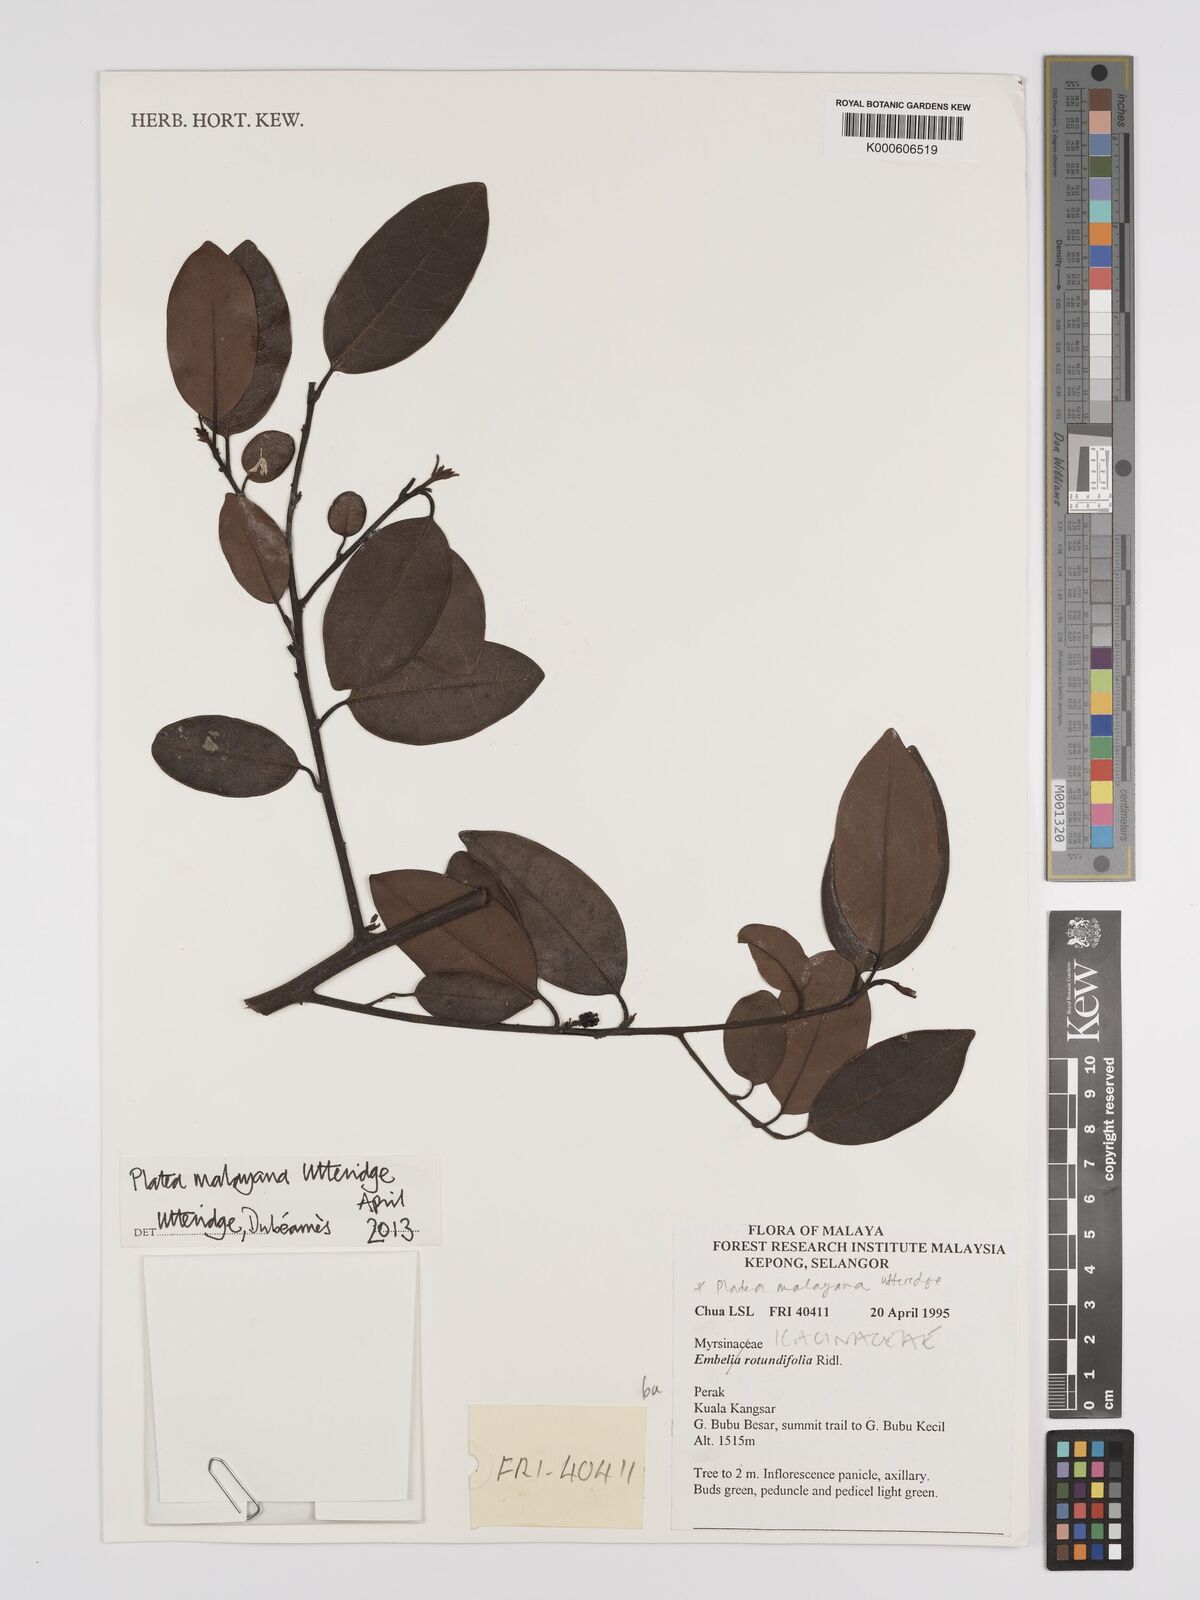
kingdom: Plantae
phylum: Tracheophyta
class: Magnoliopsida
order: Metteniusales
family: Metteniusaceae
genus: Platea
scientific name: Platea malayana
